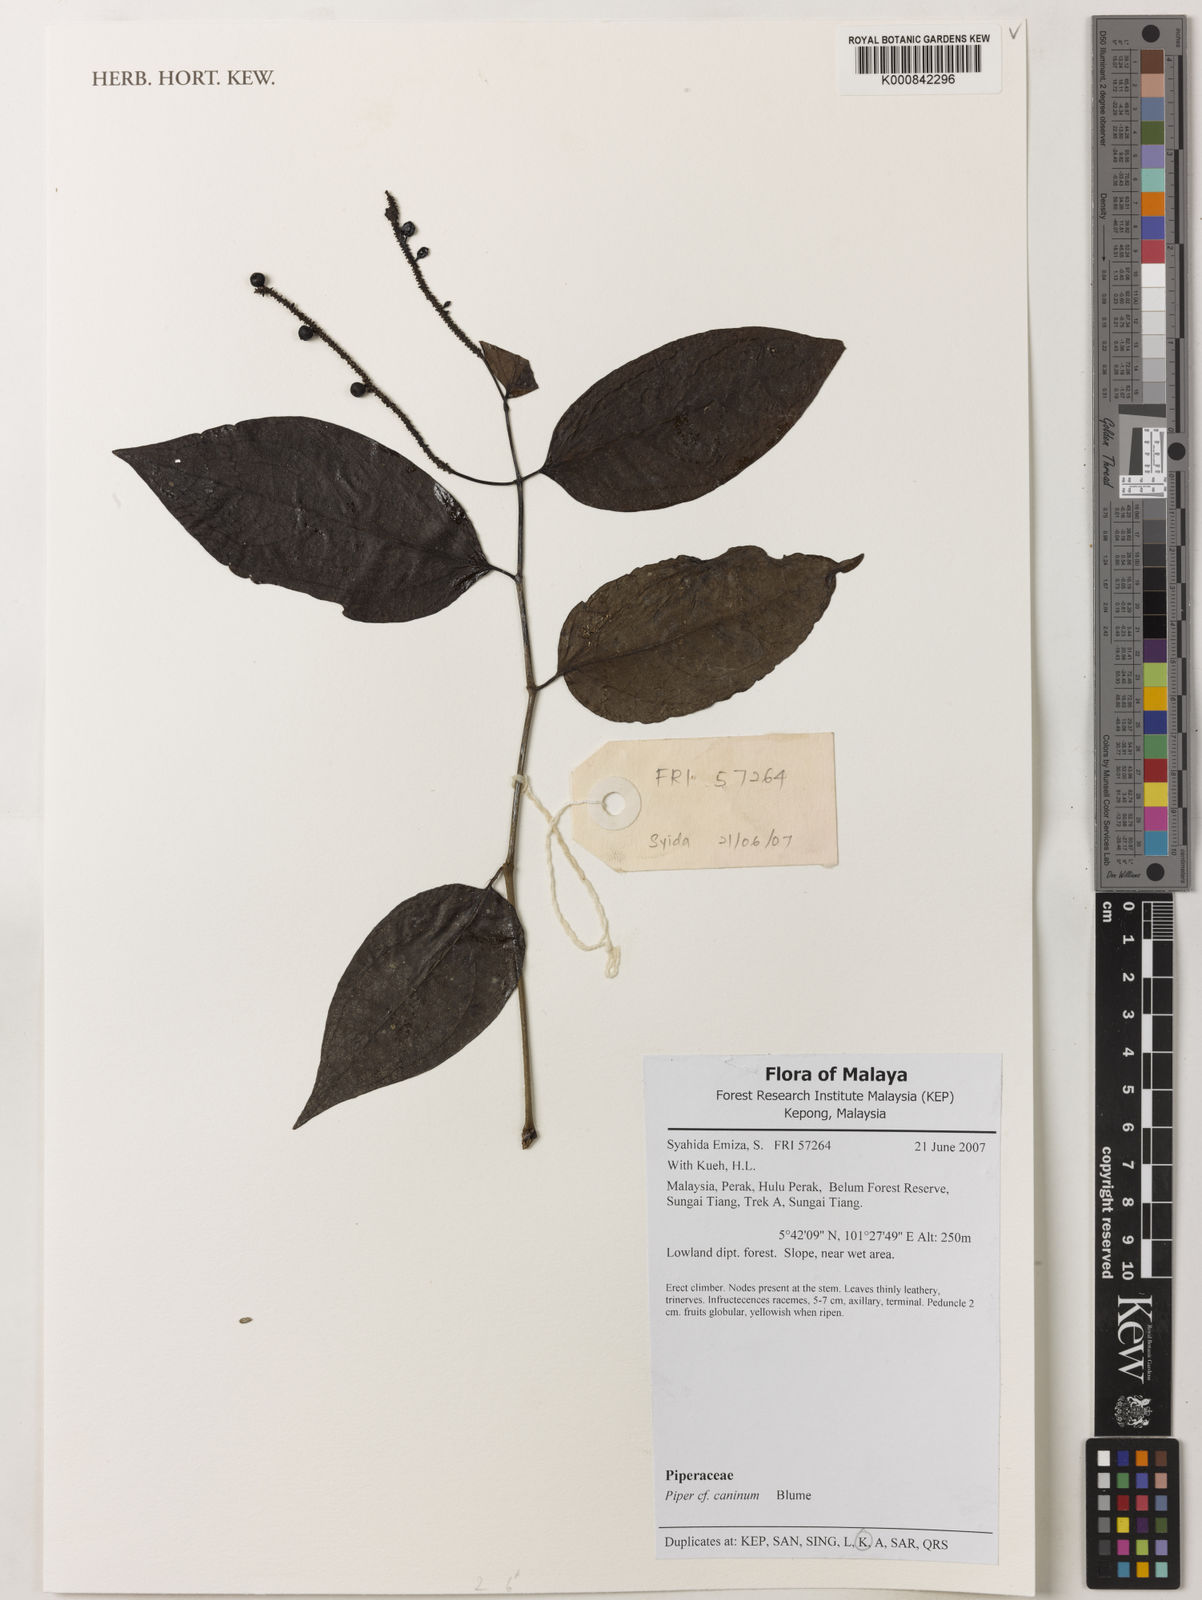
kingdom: Plantae
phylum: Tracheophyta
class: Magnoliopsida
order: Piperales
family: Piperaceae
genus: Piper
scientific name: Piper lanatum
